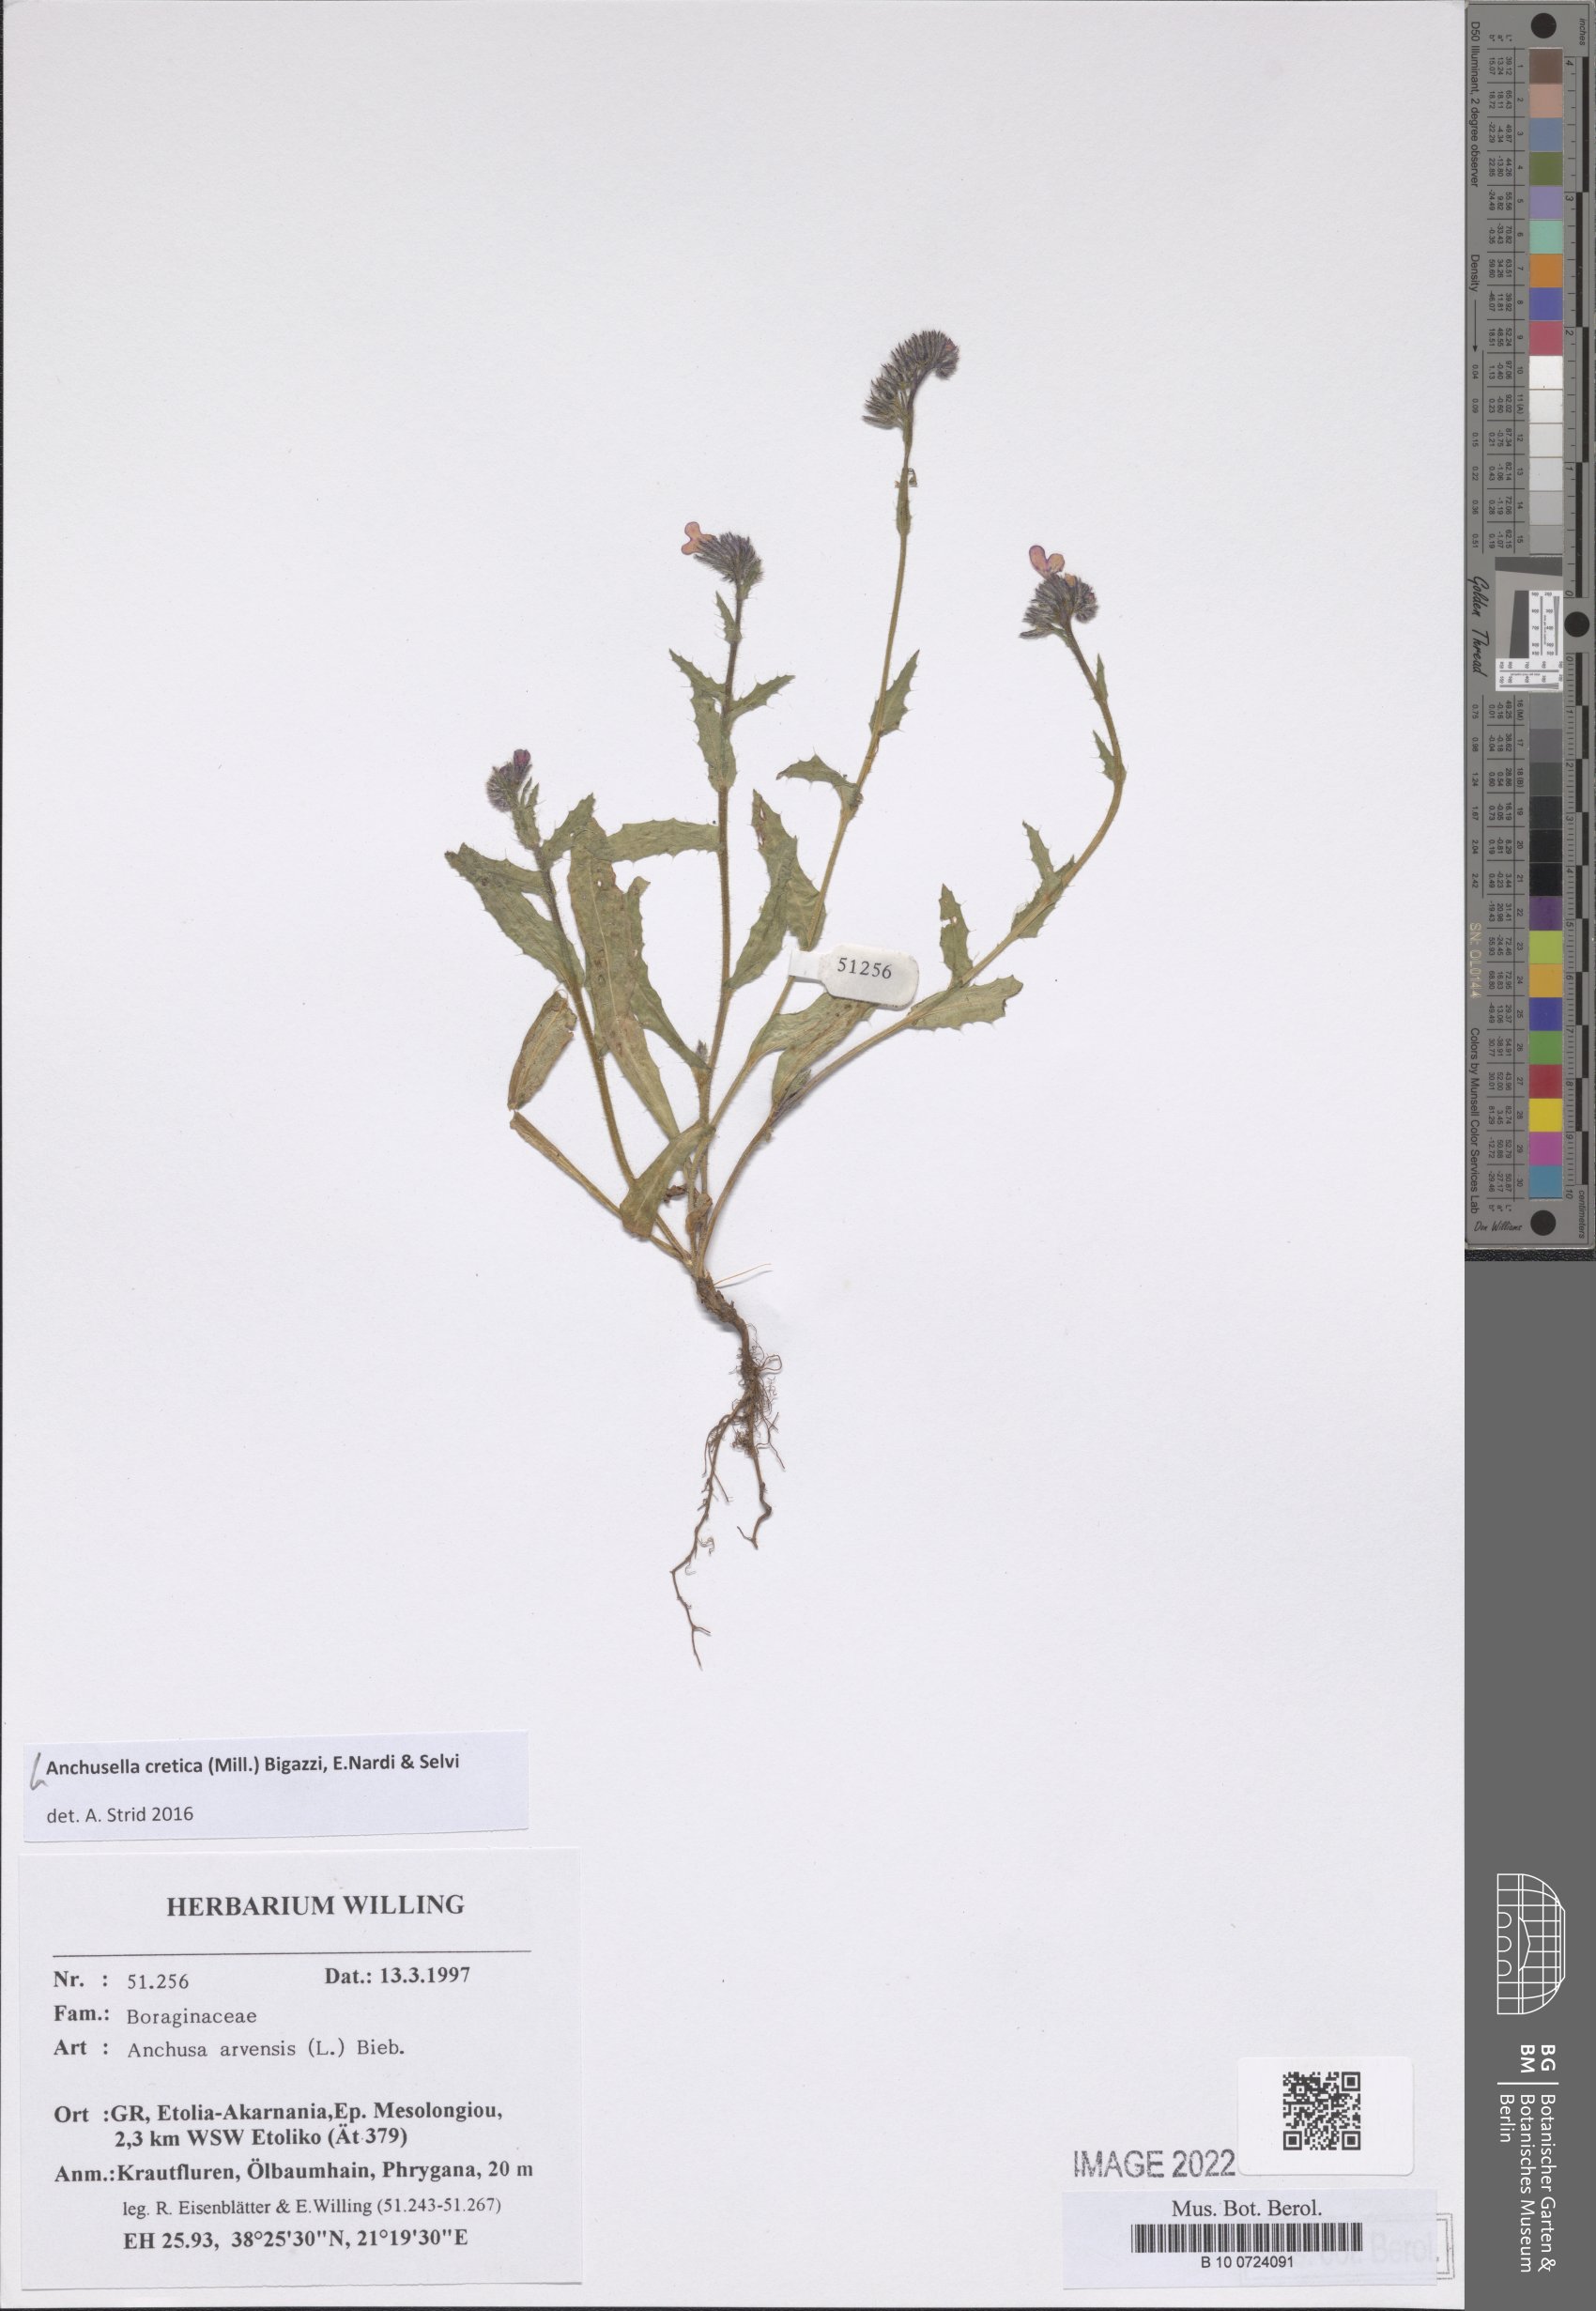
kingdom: Plantae
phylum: Tracheophyta
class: Magnoliopsida
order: Boraginales
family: Boraginaceae
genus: Anchusella
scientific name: Anchusella cretica
